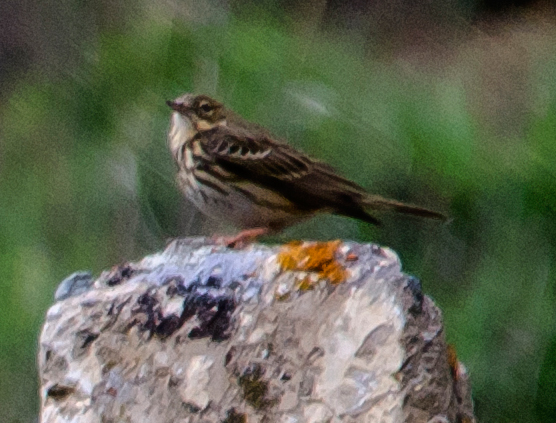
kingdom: Animalia
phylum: Chordata
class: Aves
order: Passeriformes
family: Motacillidae
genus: Anthus
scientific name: Anthus trivialis
